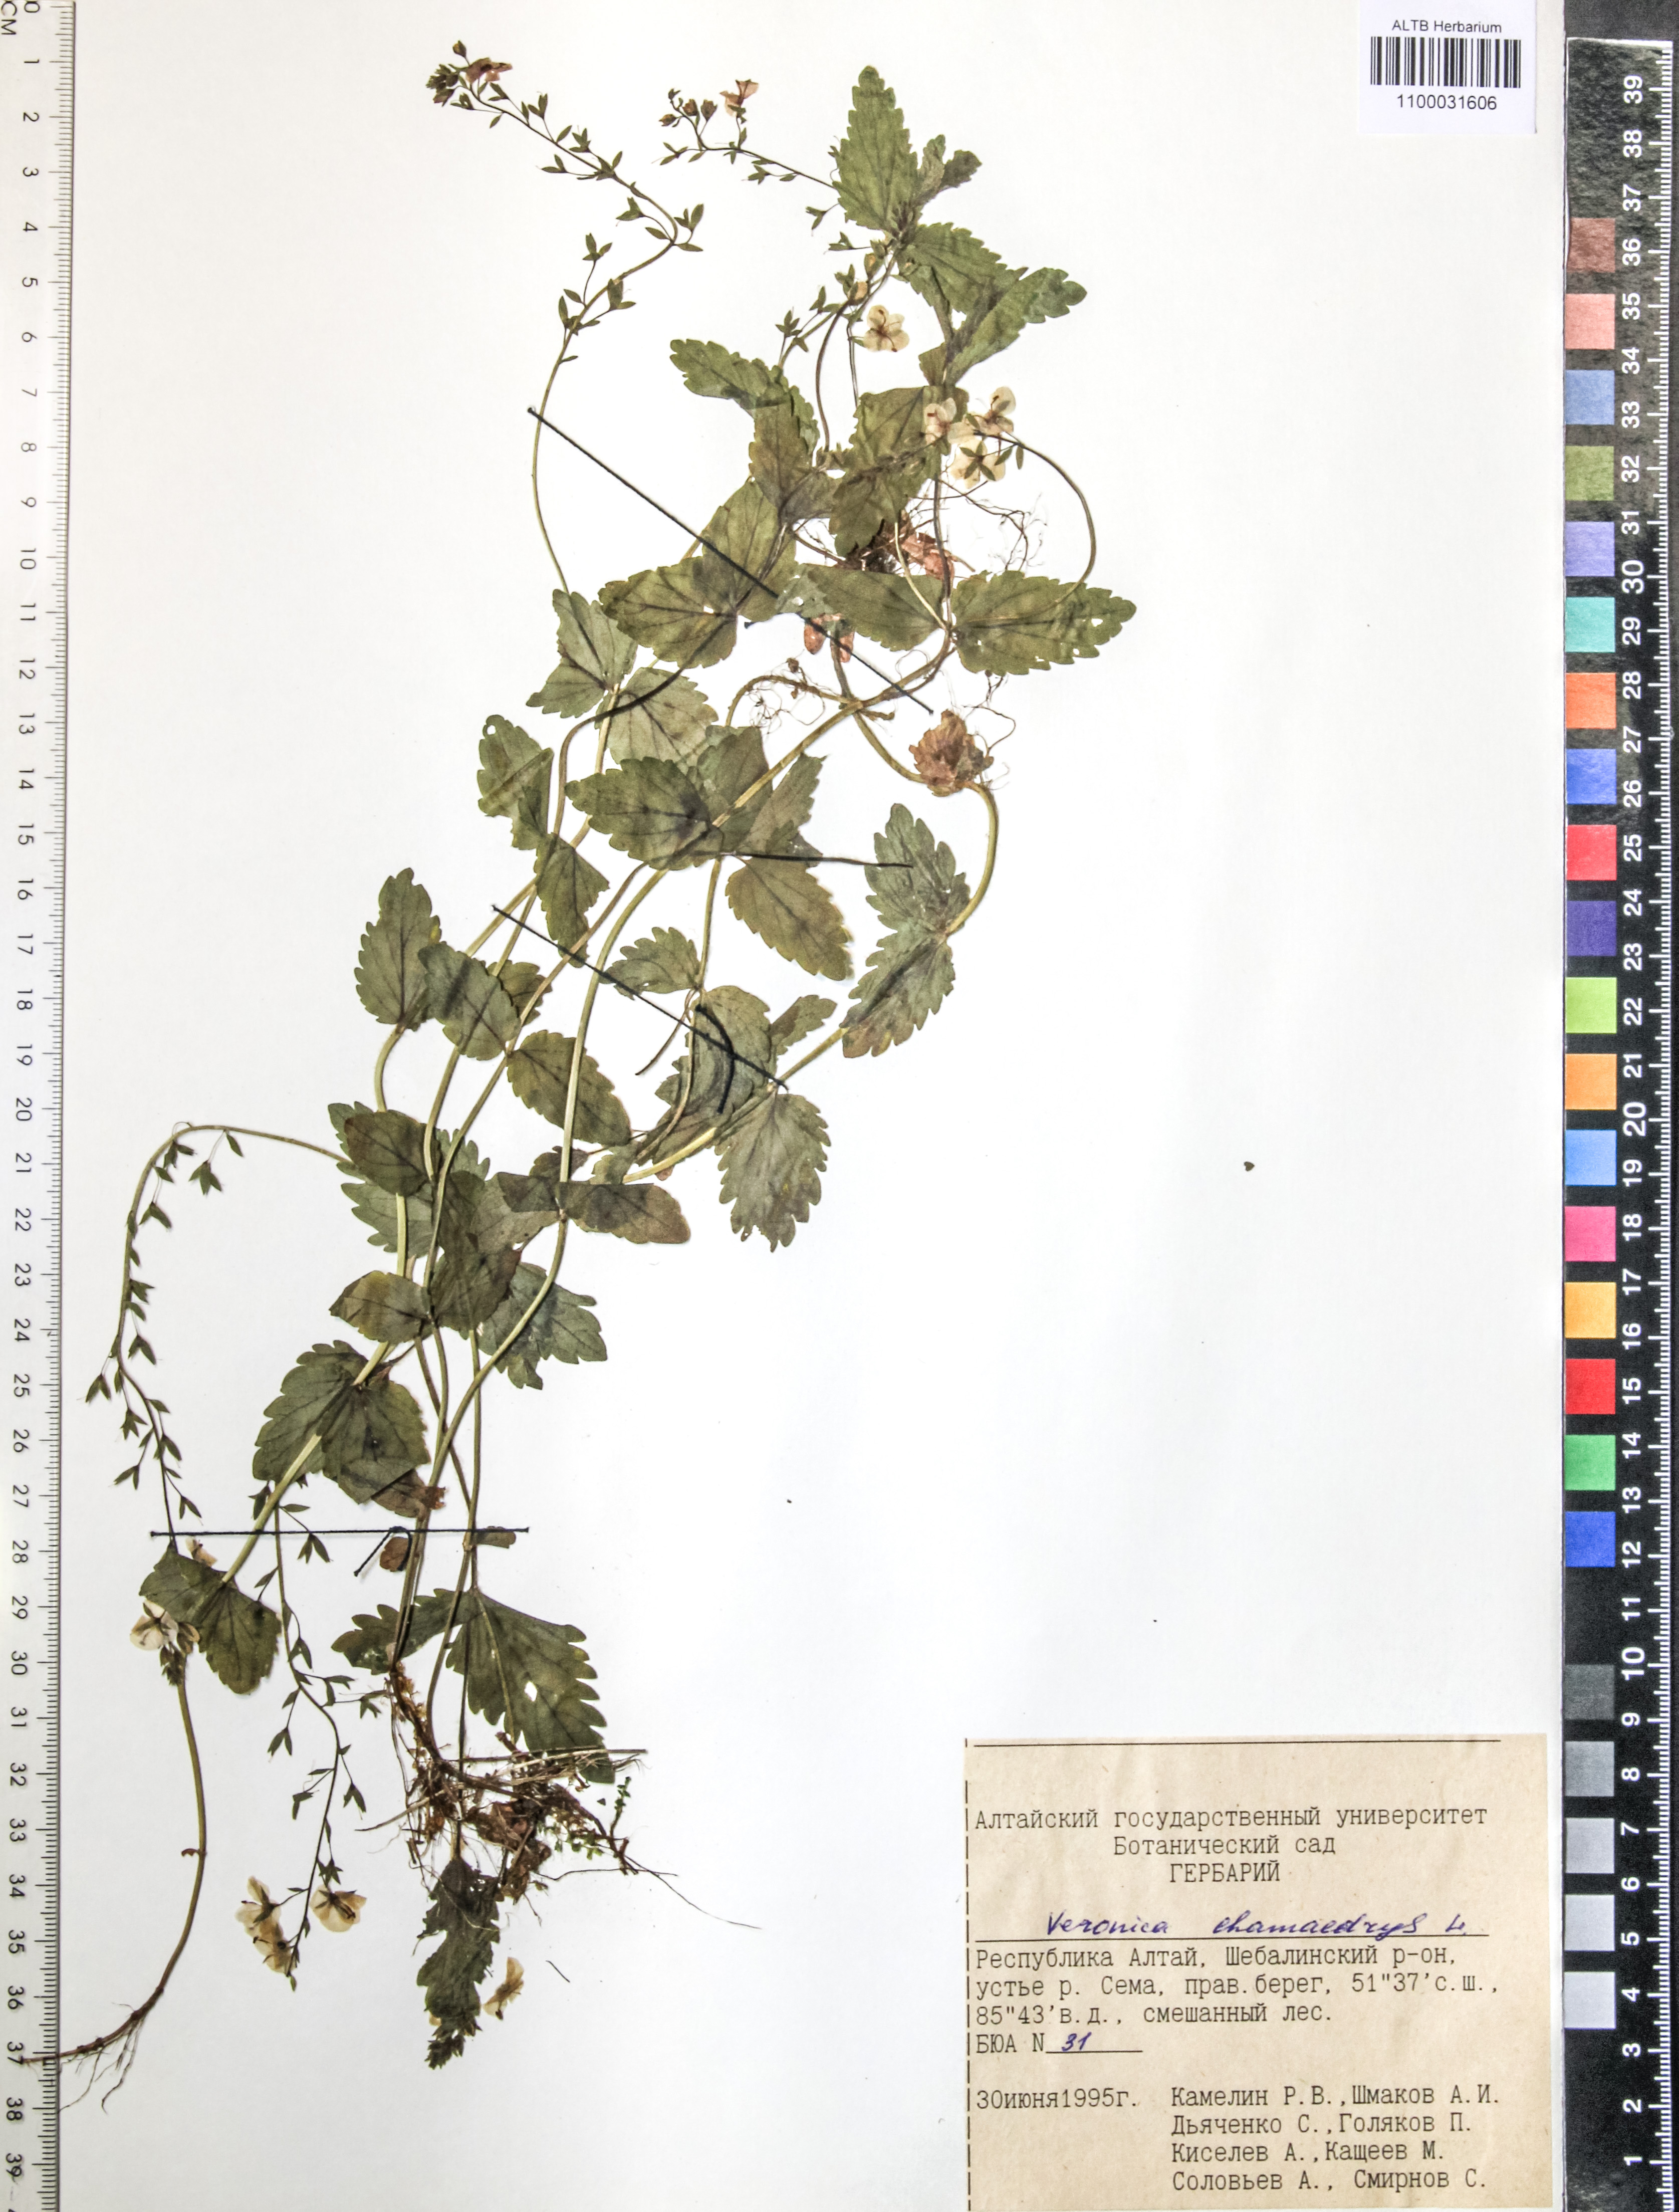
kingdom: Plantae
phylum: Tracheophyta
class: Magnoliopsida
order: Lamiales
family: Plantaginaceae
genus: Veronica
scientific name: Veronica chamaedrys
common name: Germander speedwell
